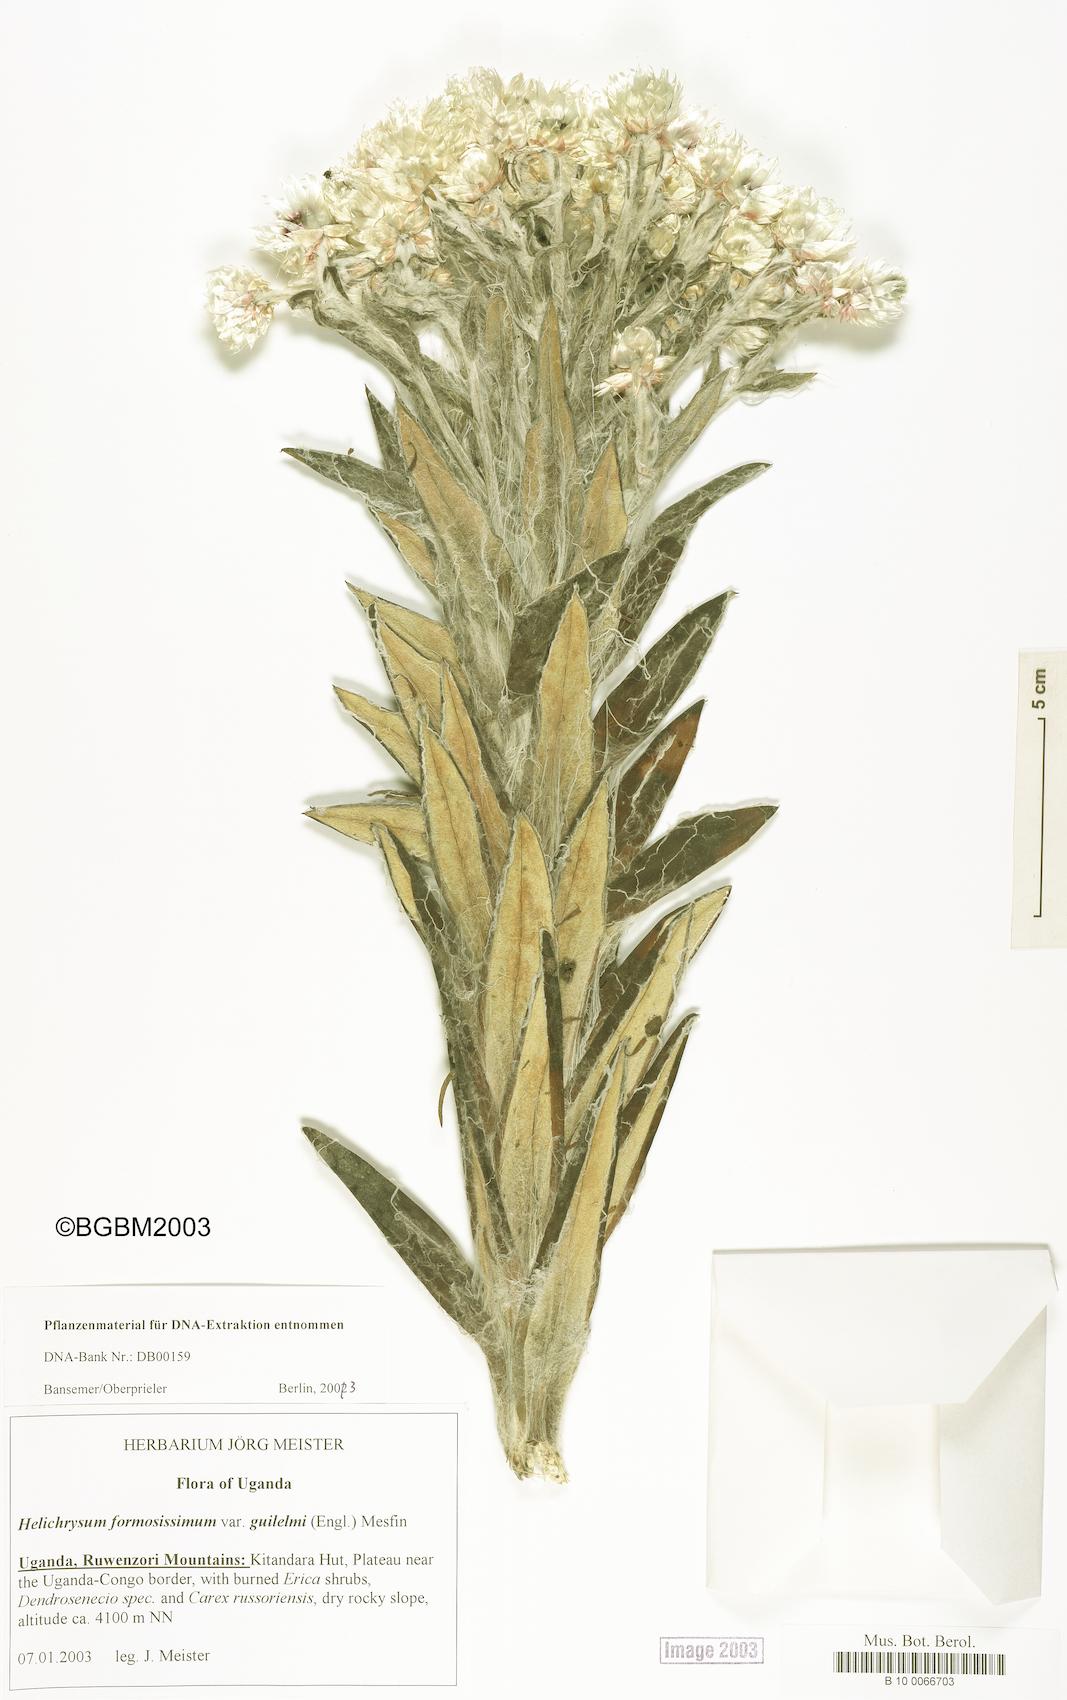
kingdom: Plantae
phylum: Tracheophyta
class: Magnoliopsida
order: Asterales
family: Asteraceae
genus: Helichrysum
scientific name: Helichrysum formosissimum
